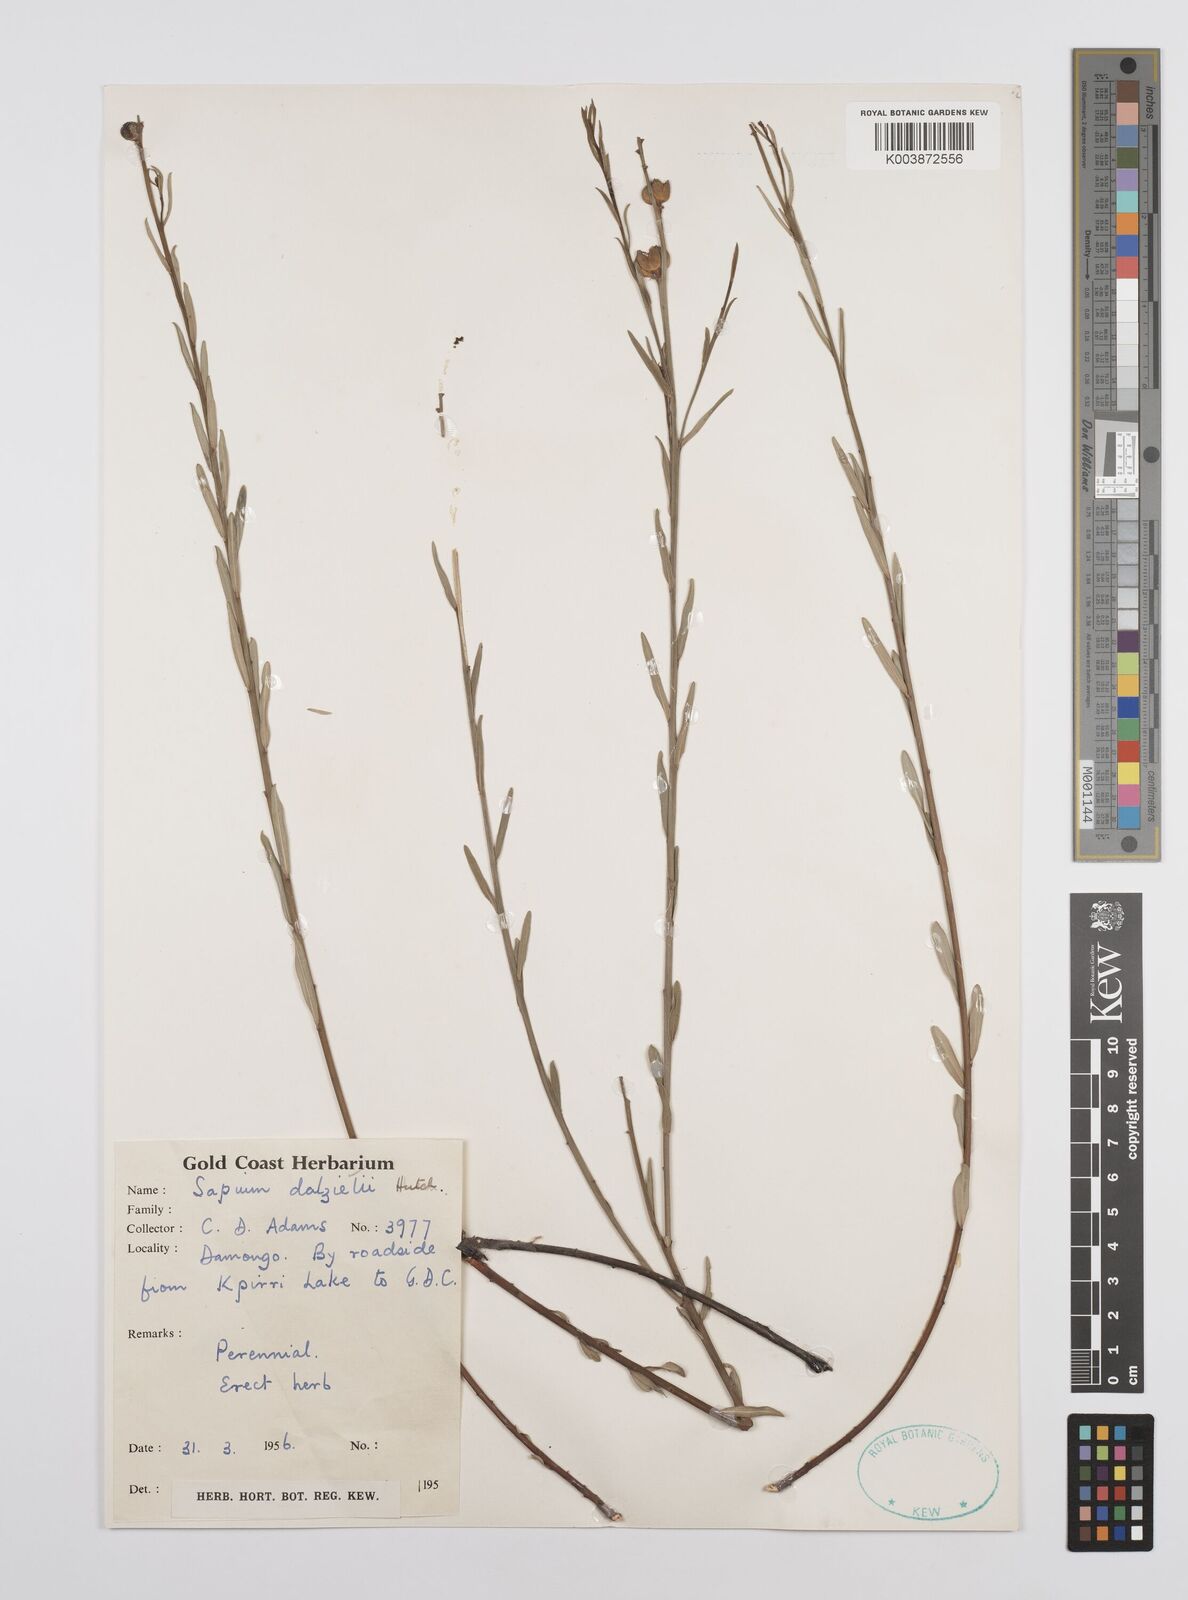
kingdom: Plantae
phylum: Tracheophyta
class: Magnoliopsida
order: Malpighiales
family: Euphorbiaceae
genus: Microstachys
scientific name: Microstachys dalzielii
